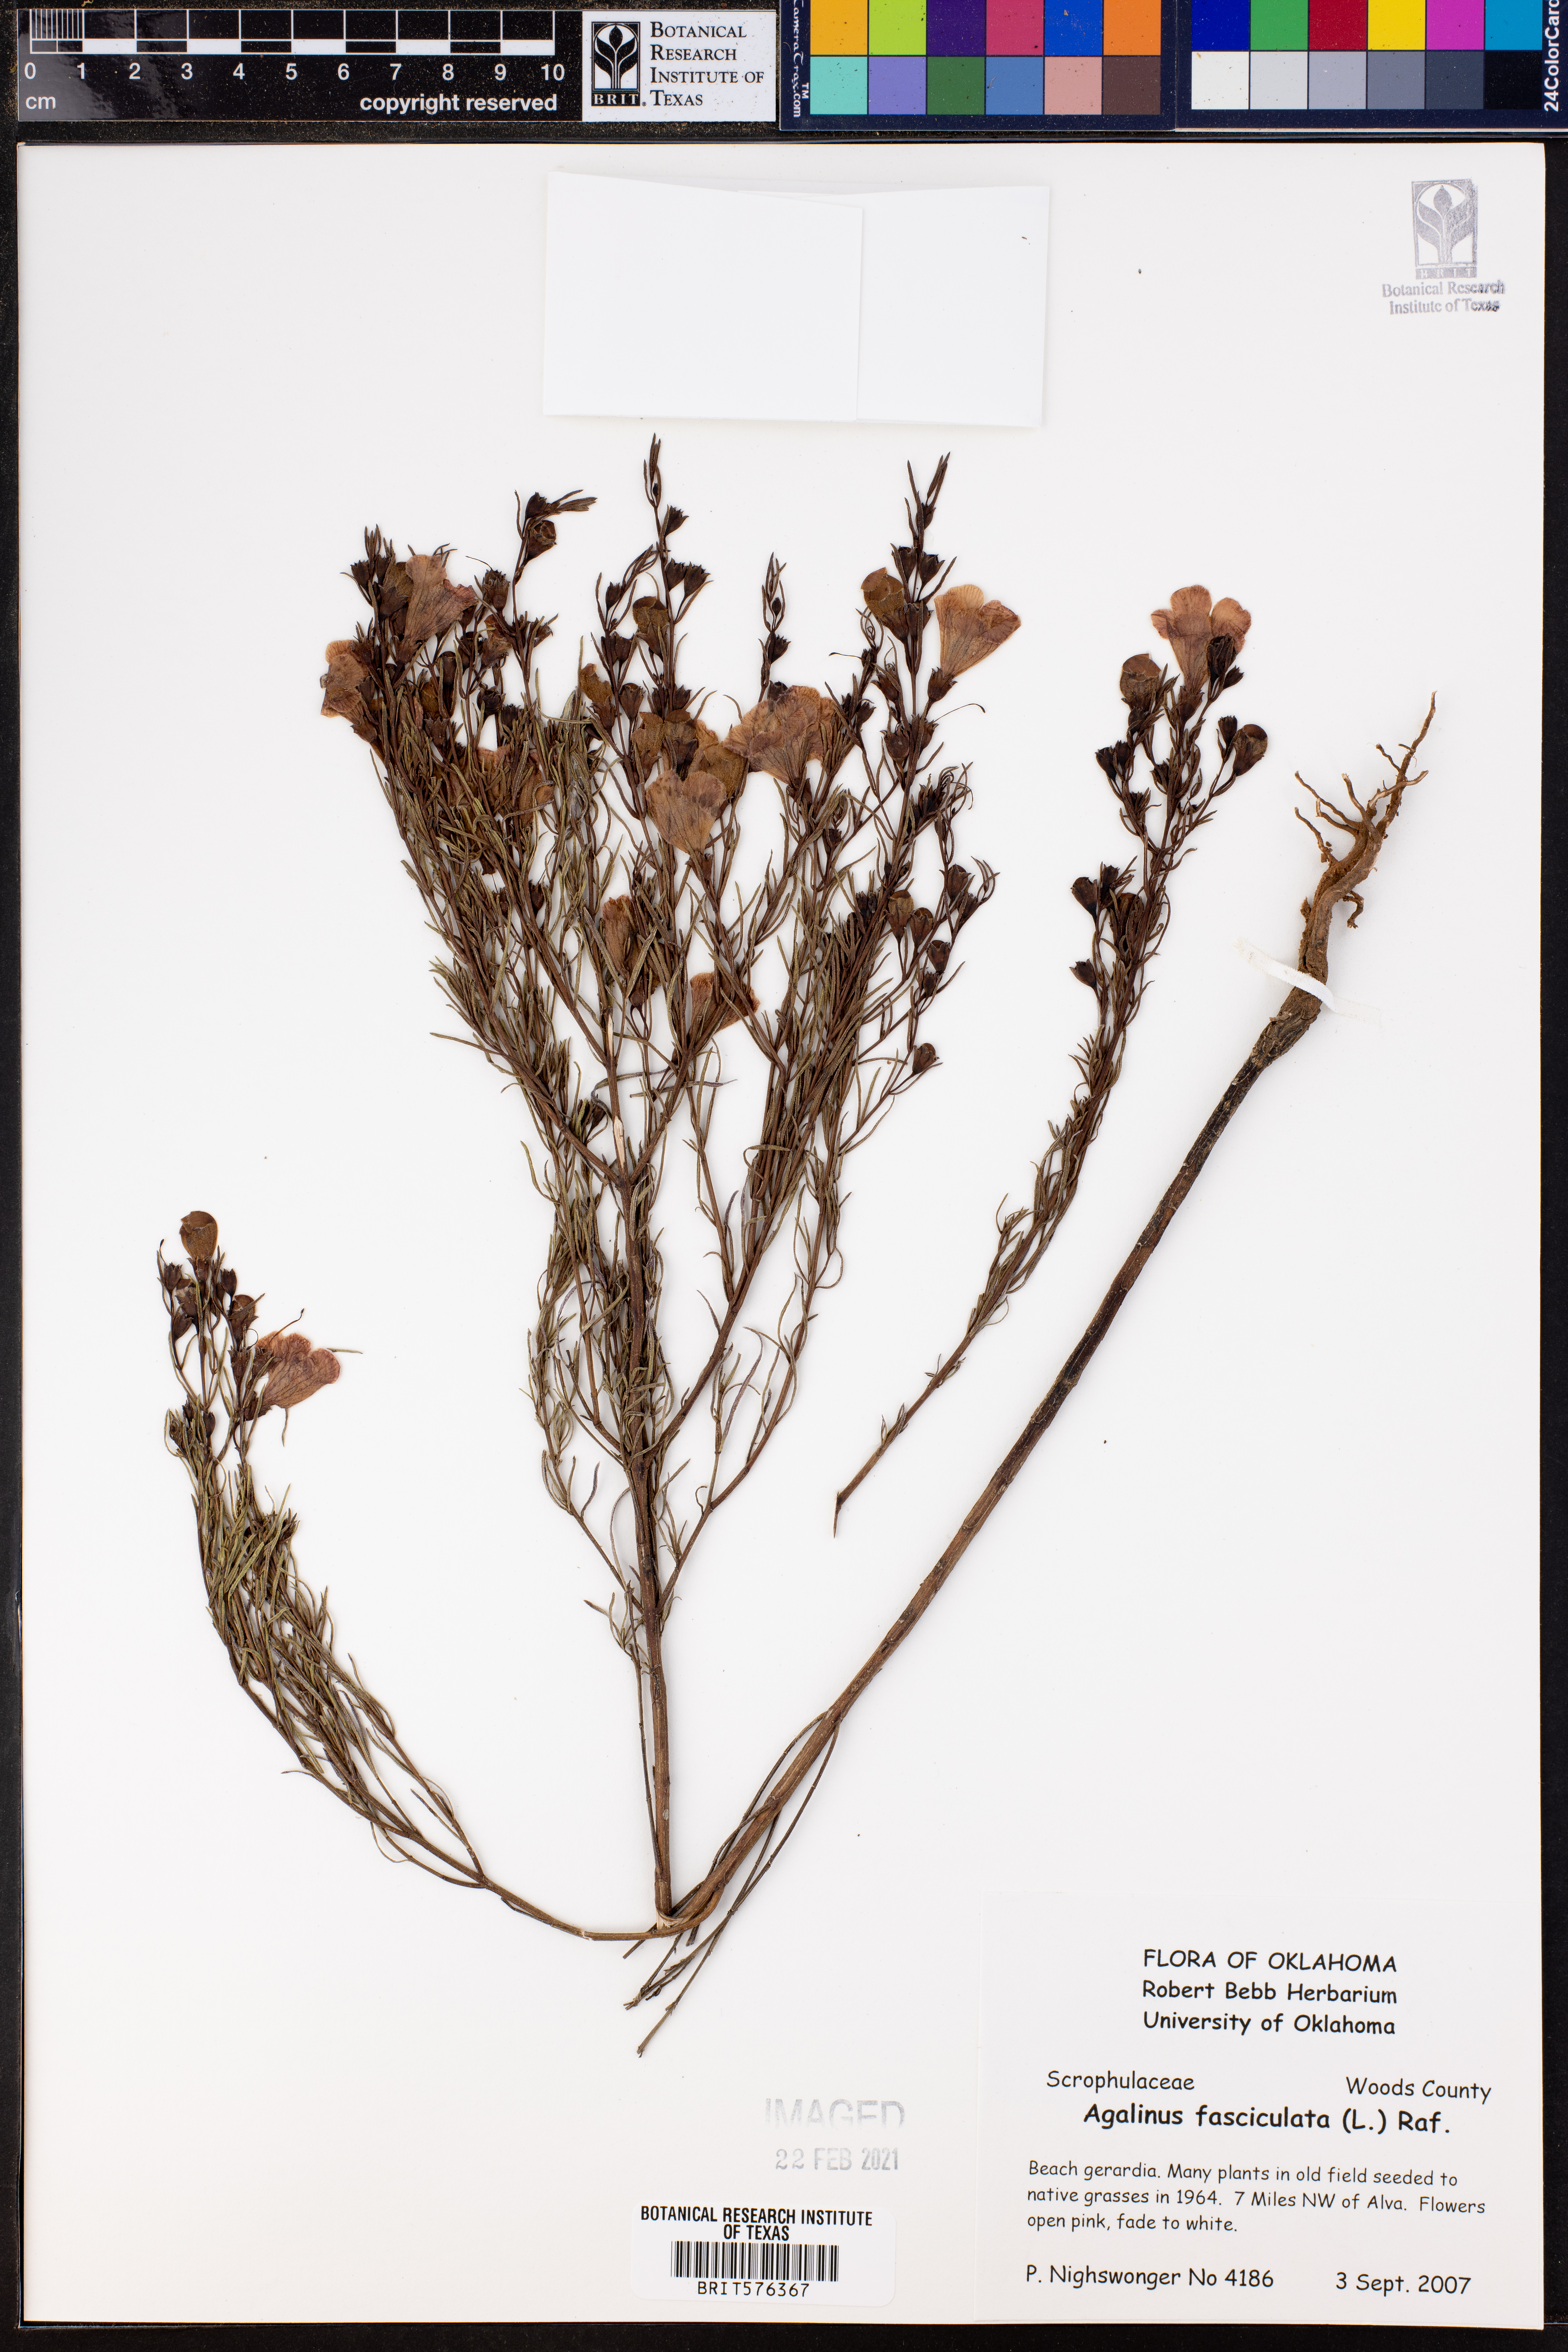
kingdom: Plantae
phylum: Tracheophyta
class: Magnoliopsida
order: Lamiales
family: Orobanchaceae
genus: Agalinis
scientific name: Agalinis fasciculata
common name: Beach false foxglove
